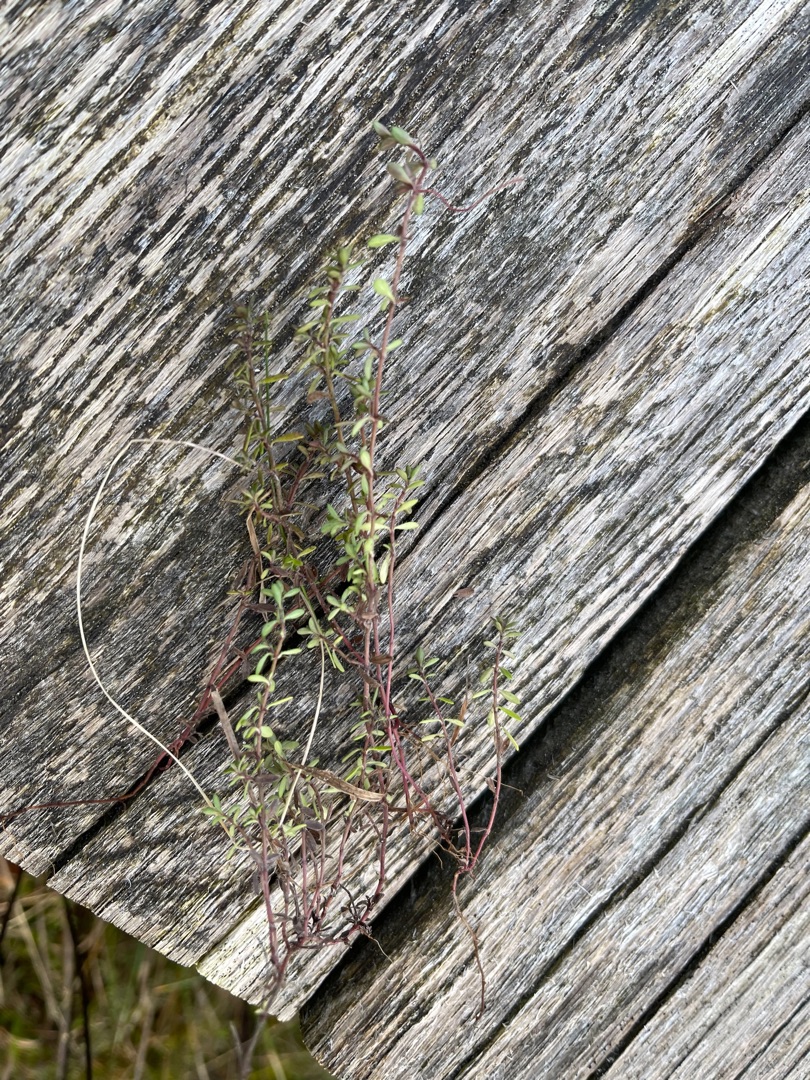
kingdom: Plantae
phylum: Tracheophyta
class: Magnoliopsida
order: Lamiales
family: Lamiaceae
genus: Thymus
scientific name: Thymus serpyllum
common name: Smalbladet timian
